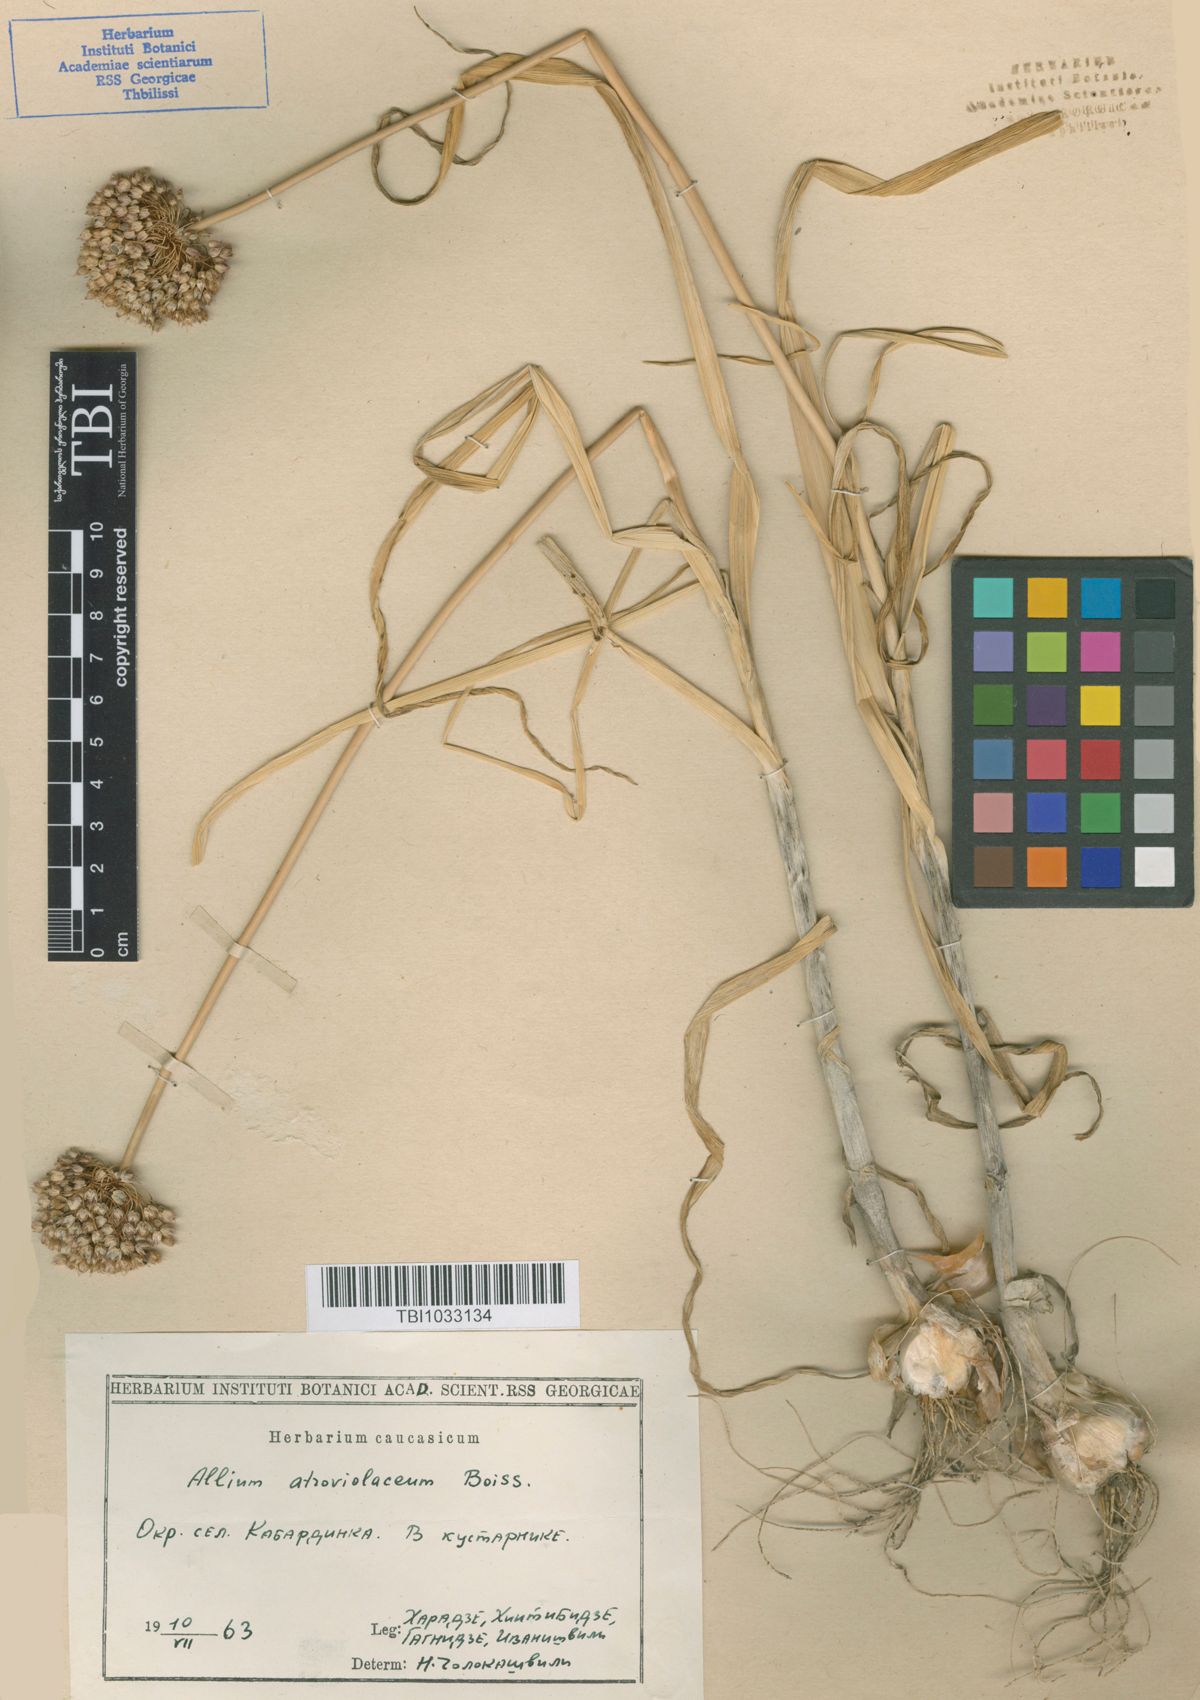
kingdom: Plantae
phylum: Tracheophyta
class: Liliopsida
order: Asparagales
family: Amaryllidaceae
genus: Allium
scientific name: Allium atroviolaceum
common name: Broadleaf wild leek
